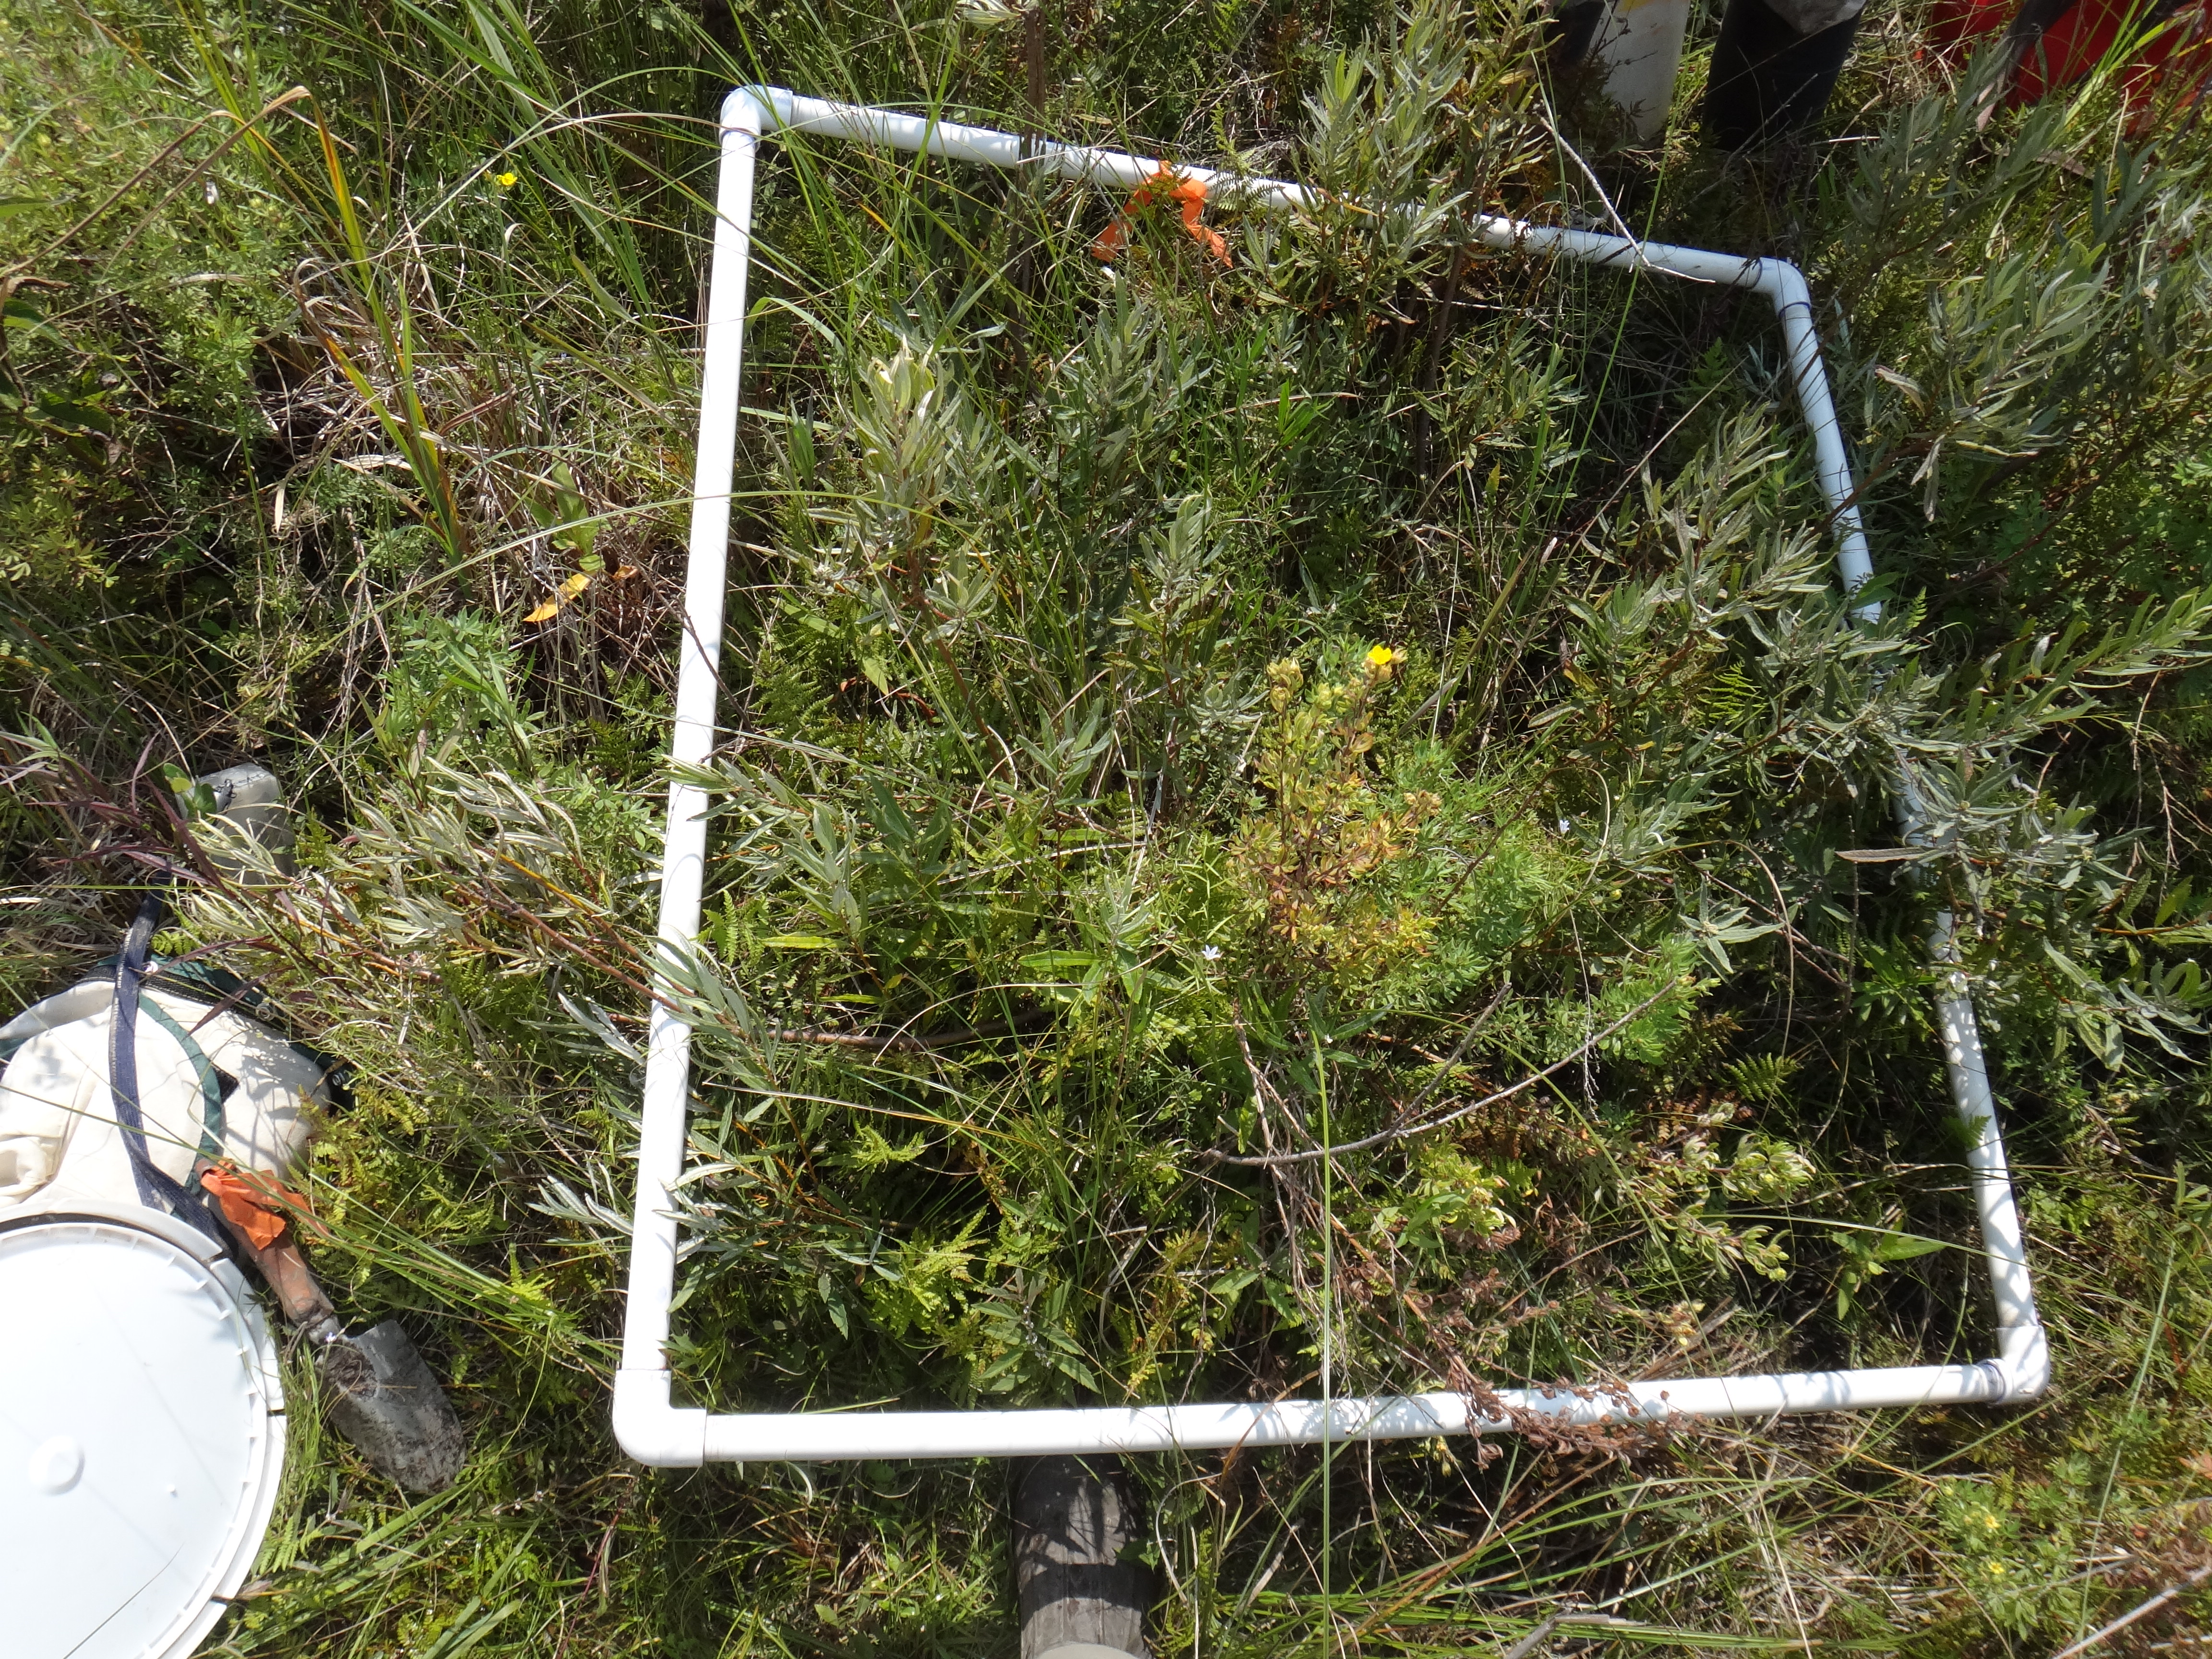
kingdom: Plantae
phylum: Tracheophyta
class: Magnoliopsida
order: Lamiales
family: Lamiaceae
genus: Lycopus
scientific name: Lycopus uniflorus
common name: Northern bugleweed
